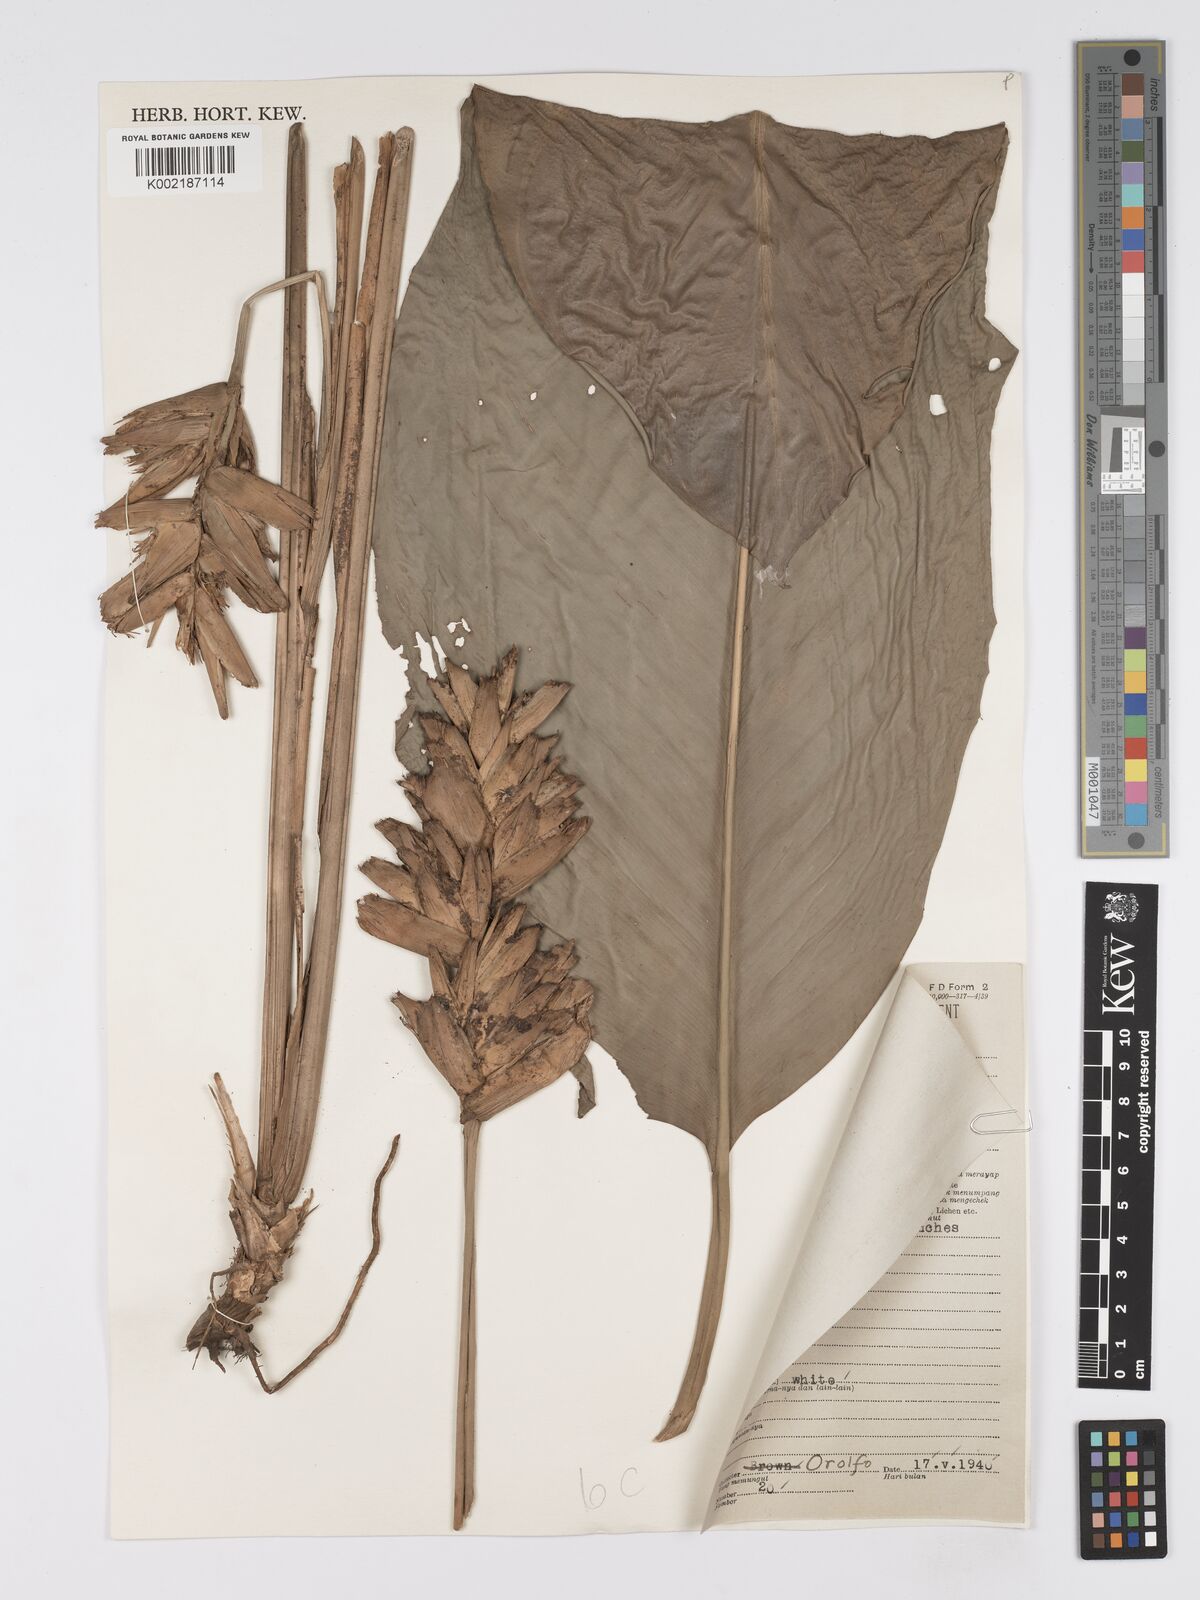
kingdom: Plantae
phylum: Tracheophyta
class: Liliopsida
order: Zingiberales
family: Marantaceae
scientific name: Marantaceae
